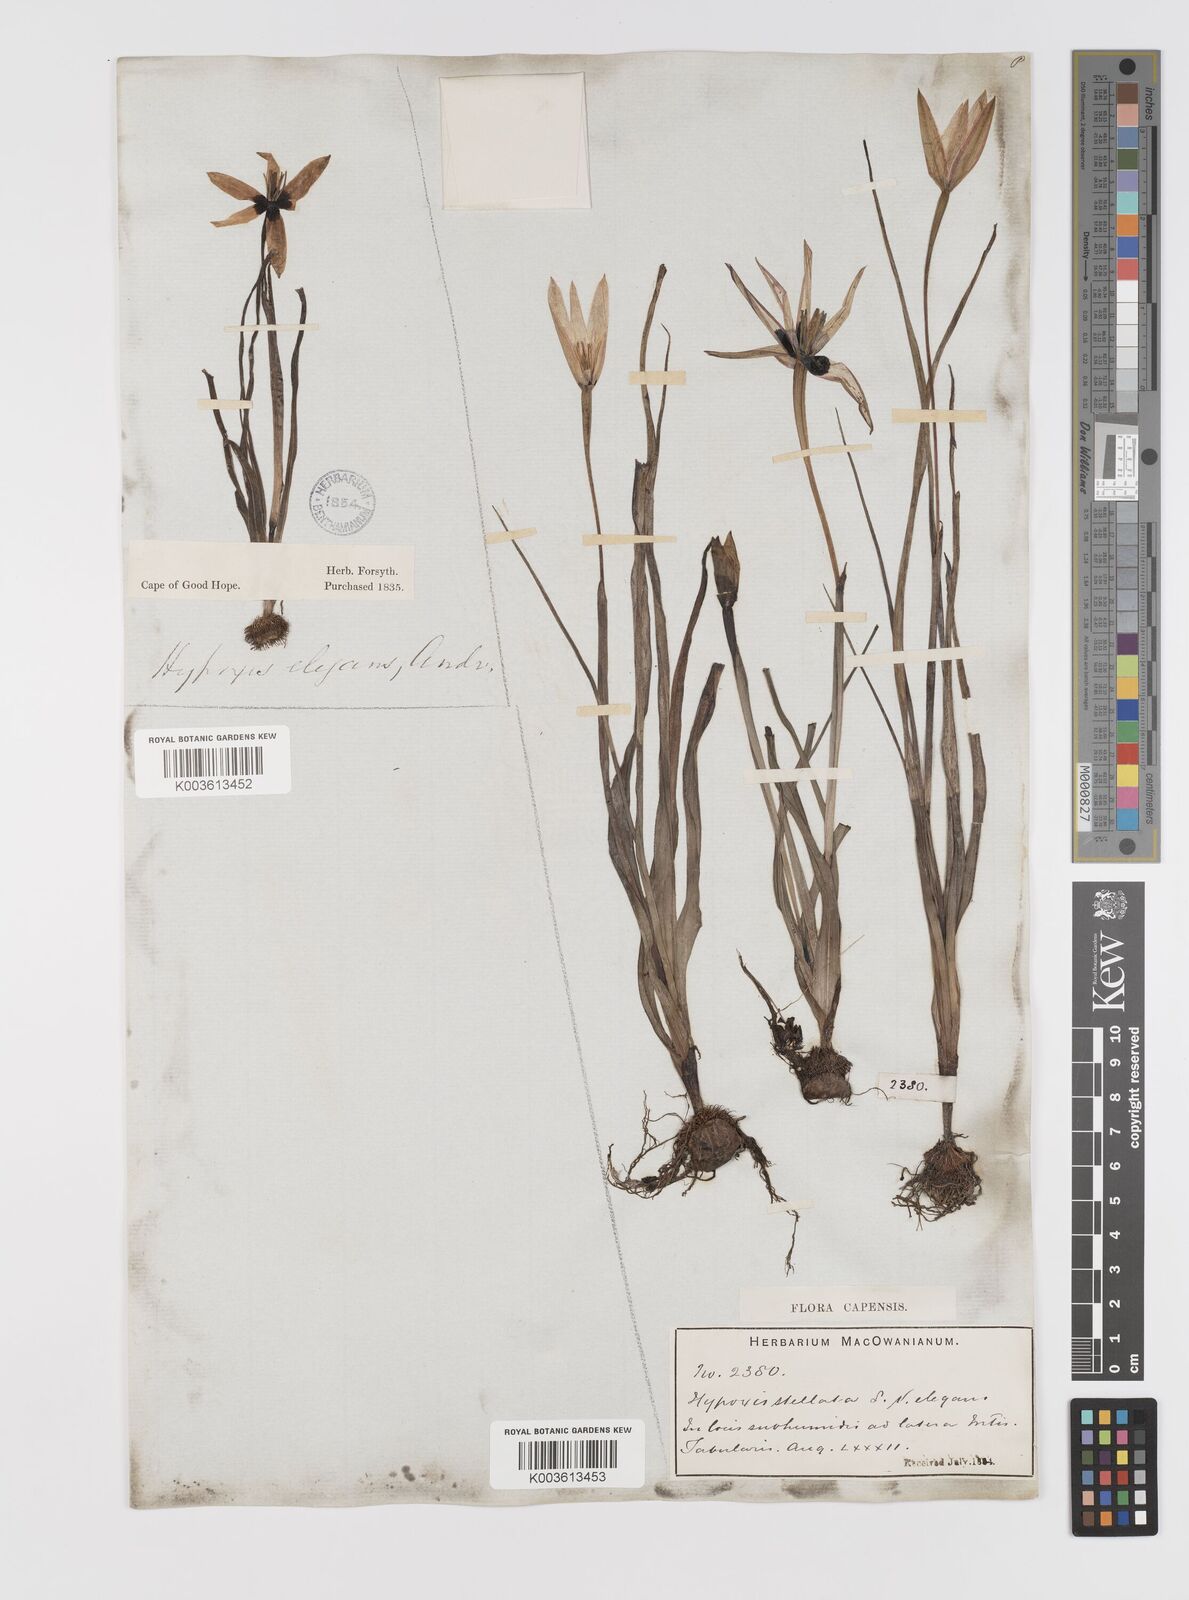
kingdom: Plantae
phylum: Tracheophyta
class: Liliopsida
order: Asparagales
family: Hypoxidaceae
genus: Pauridia
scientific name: Pauridia capensis
